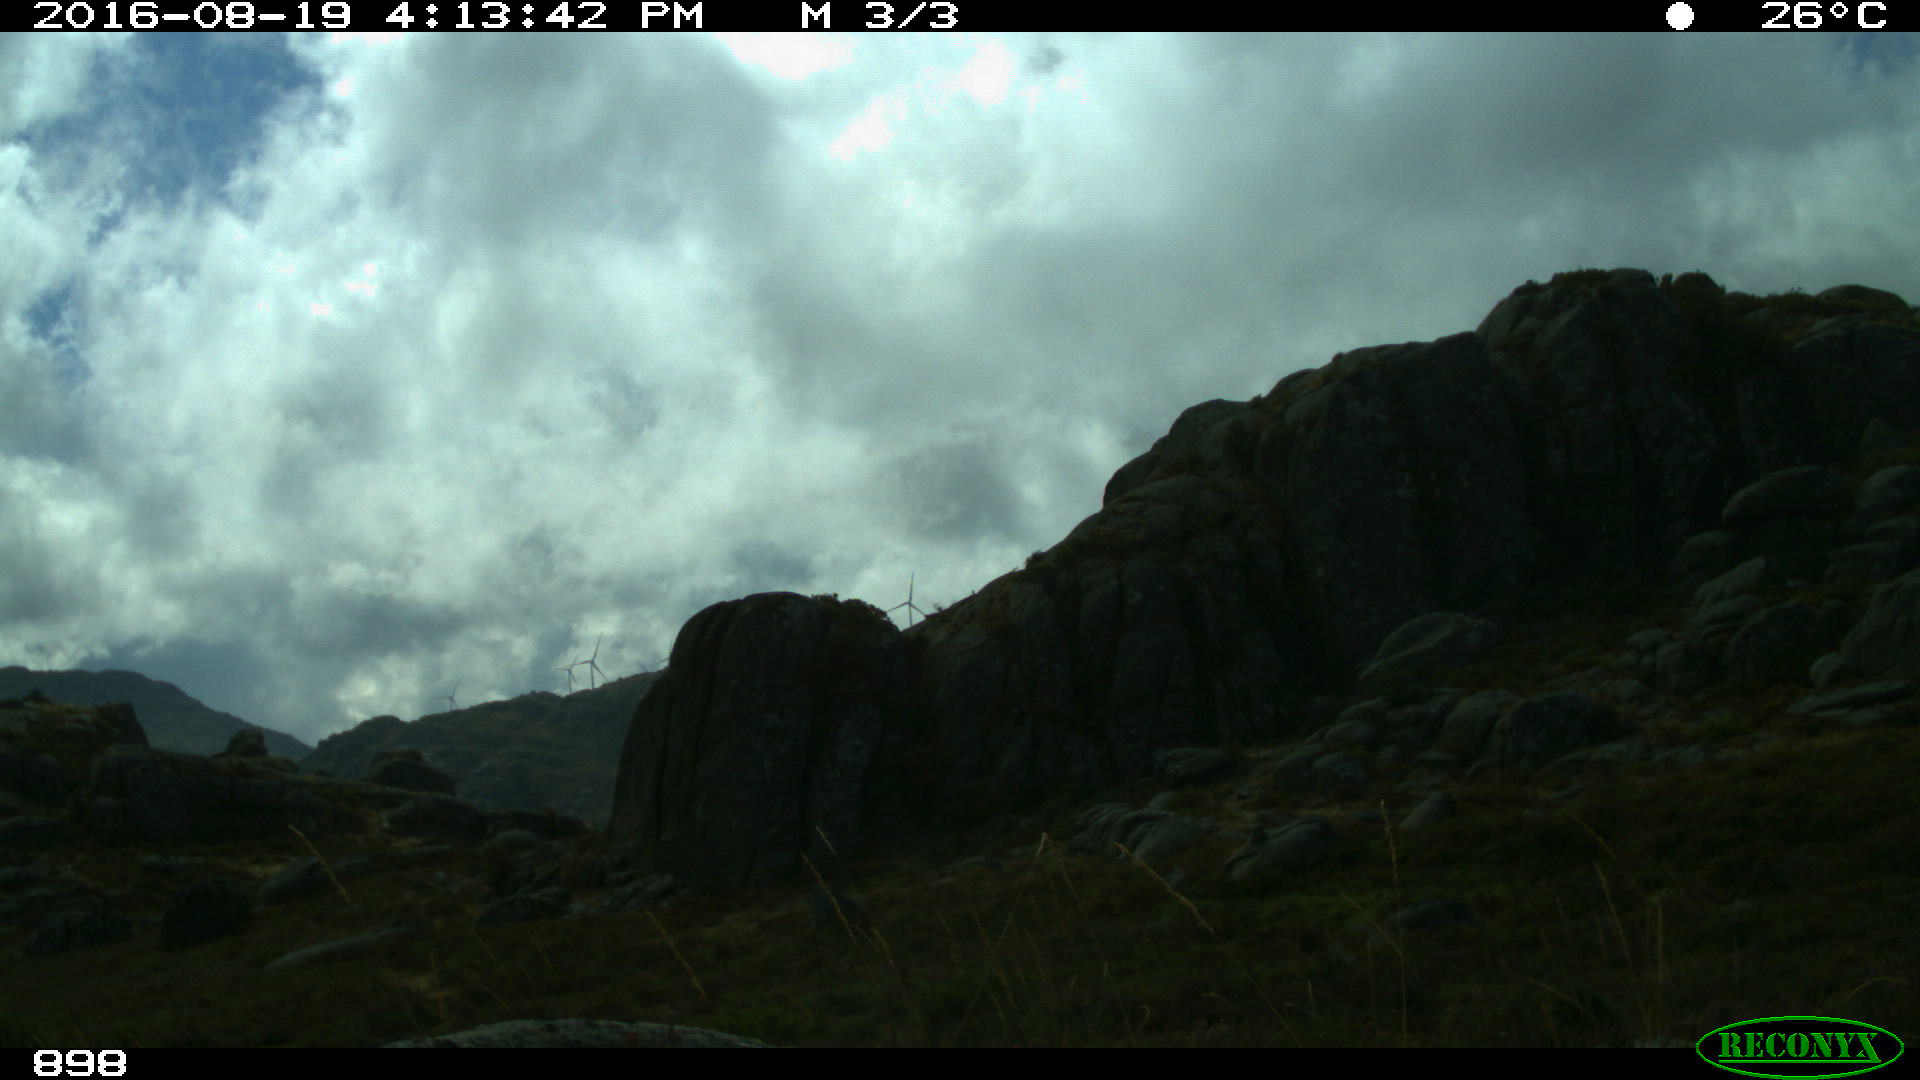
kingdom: Animalia
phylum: Chordata
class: Mammalia
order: Artiodactyla
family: Bovidae
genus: Bos
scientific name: Bos taurus
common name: Domesticated cattle
